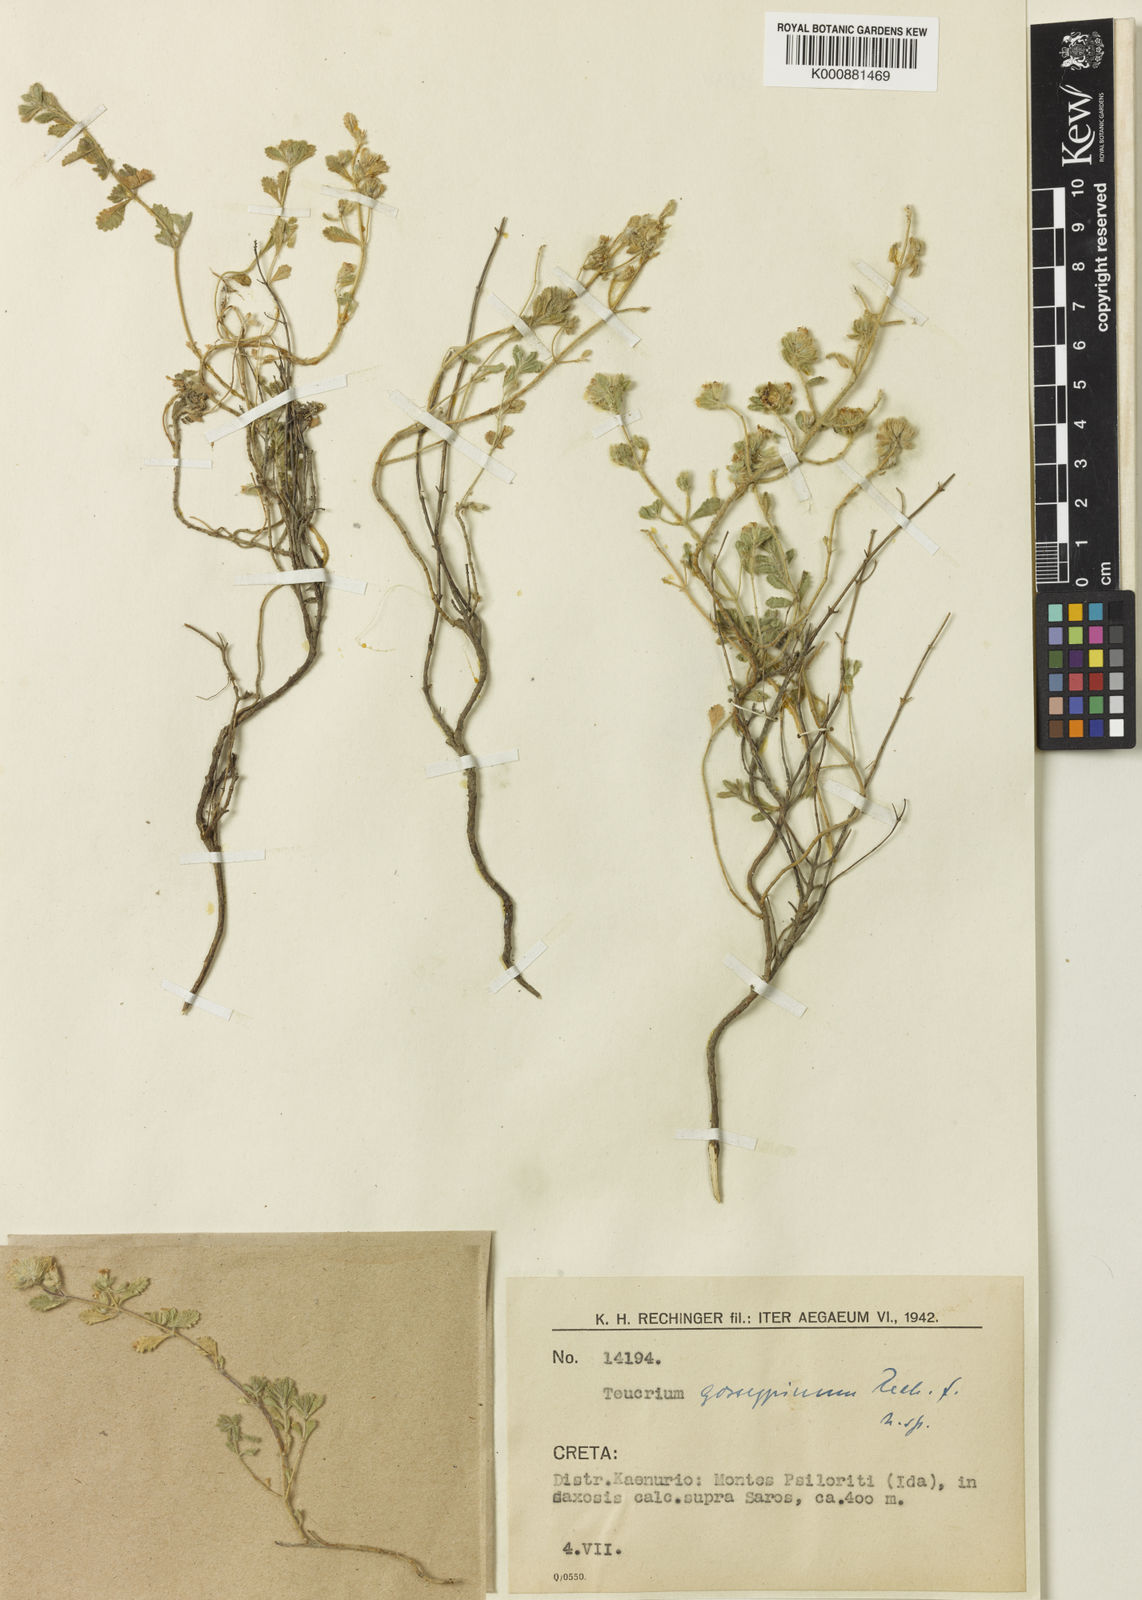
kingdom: Plantae
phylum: Tracheophyta
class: Magnoliopsida
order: Lamiales
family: Lamiaceae
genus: Teucrium
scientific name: Teucrium alpestre
